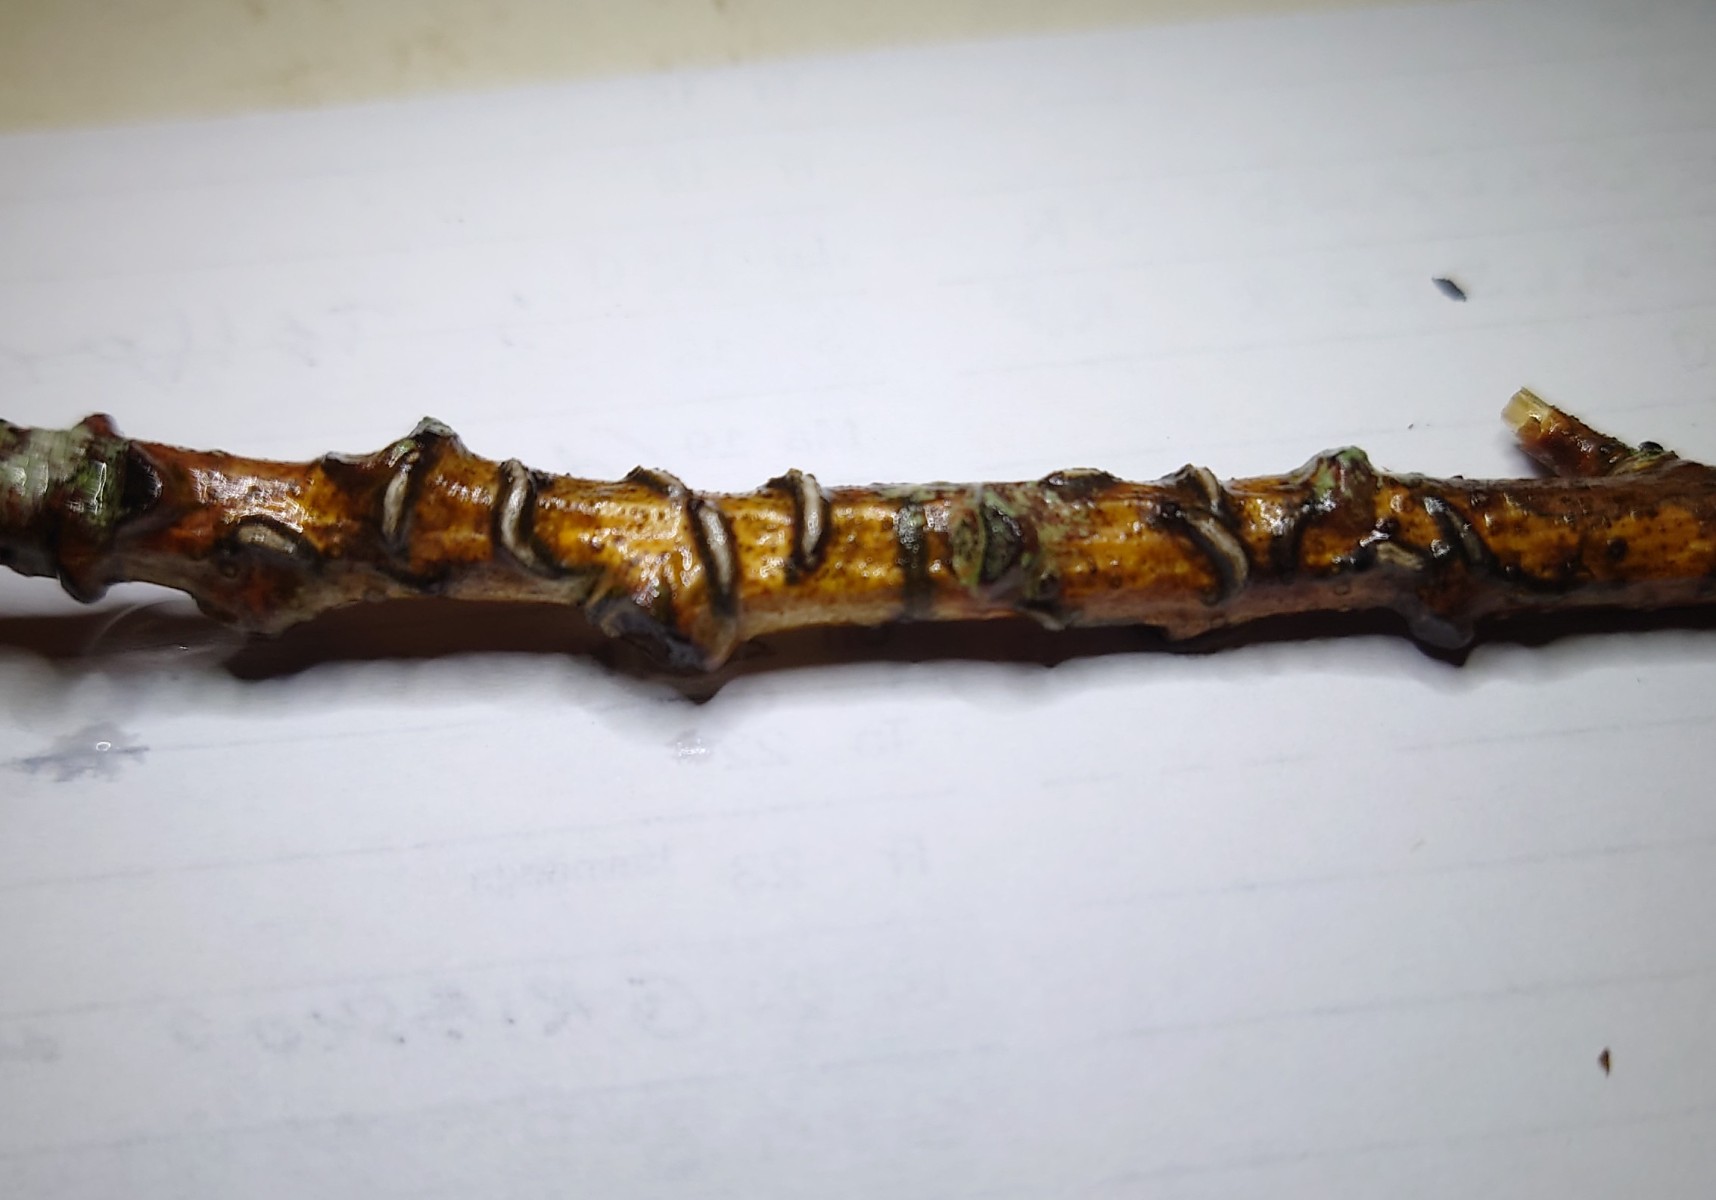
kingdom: Fungi
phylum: Ascomycota
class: Leotiomycetes
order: Rhytismatales
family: Rhytismataceae
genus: Colpoma
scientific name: Colpoma quercinum
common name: ege-sprækkeskive
